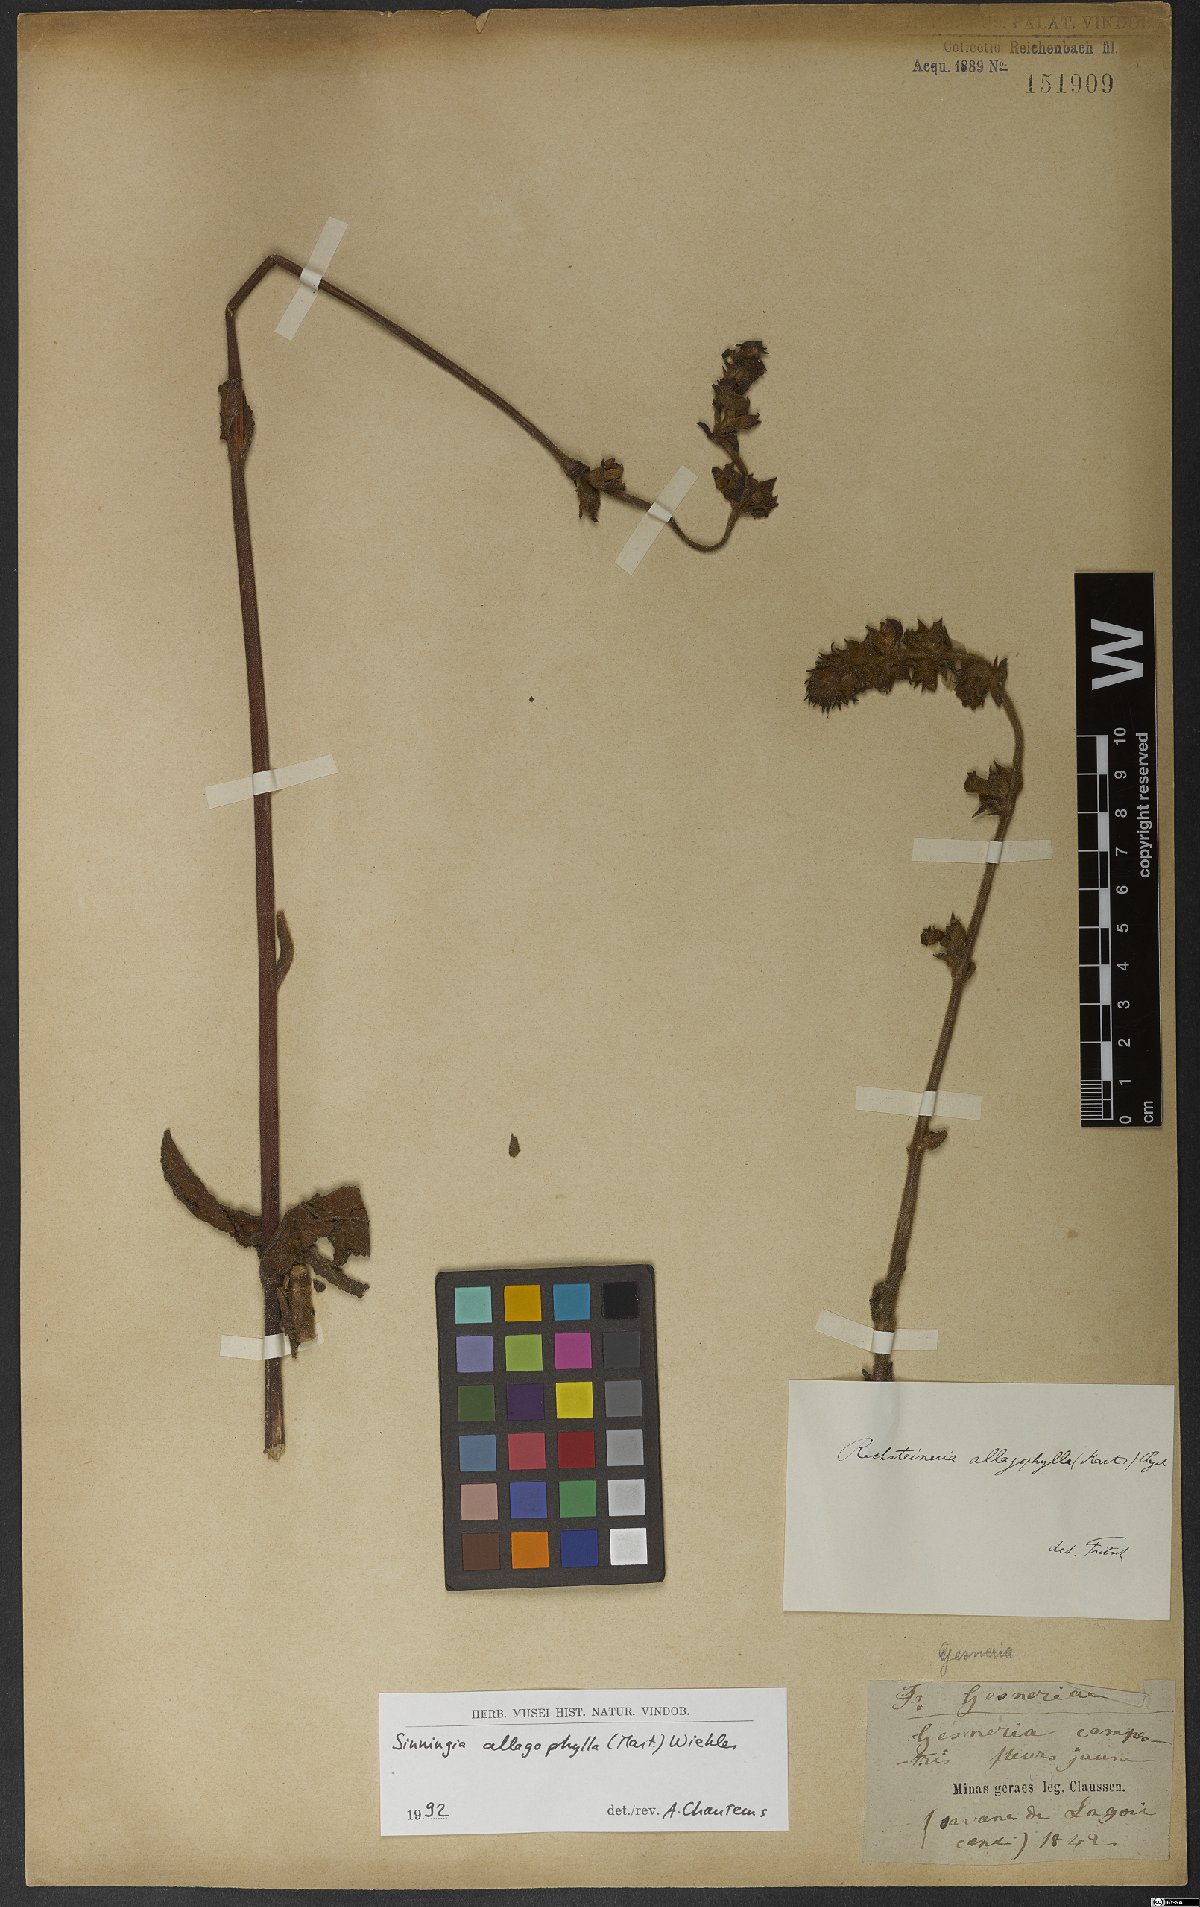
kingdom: Plantae
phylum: Tracheophyta
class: Magnoliopsida
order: Lamiales
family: Gesneriaceae
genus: Sinningia
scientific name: Sinningia allagophylla
